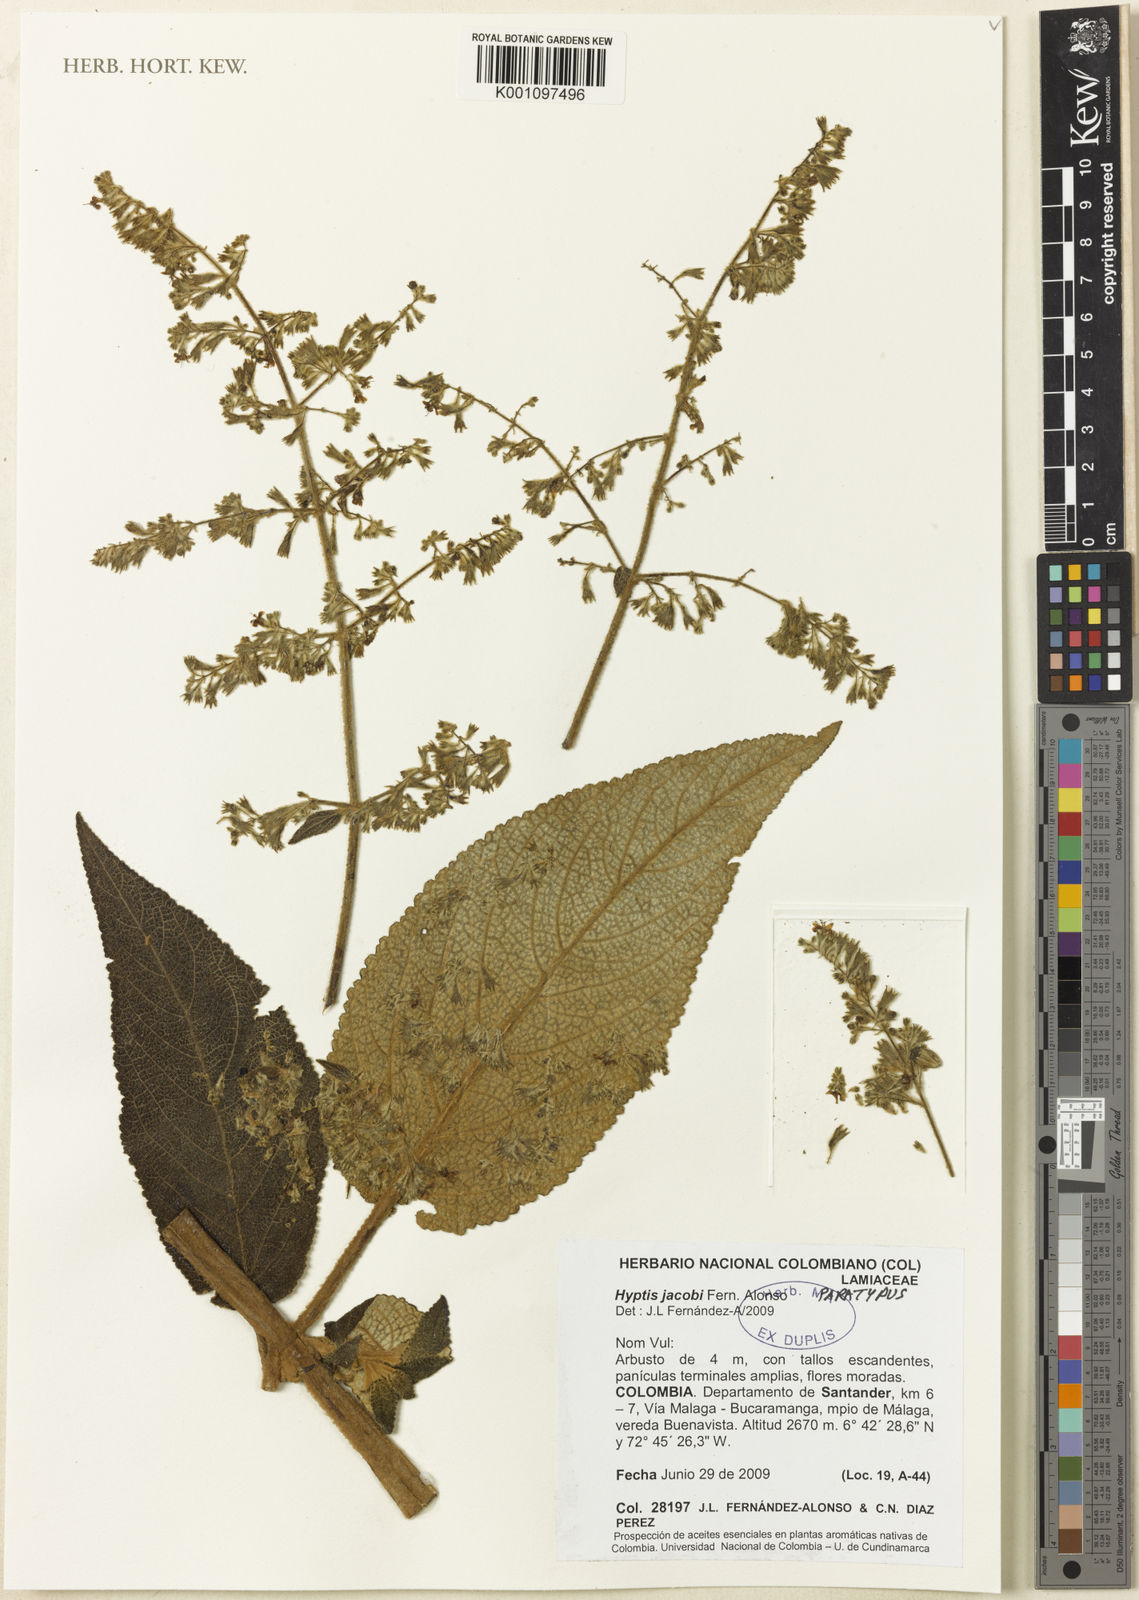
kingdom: Plantae
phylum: Tracheophyta
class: Magnoliopsida
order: Lamiales
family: Lamiaceae
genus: Condea
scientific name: Condea jacobi
